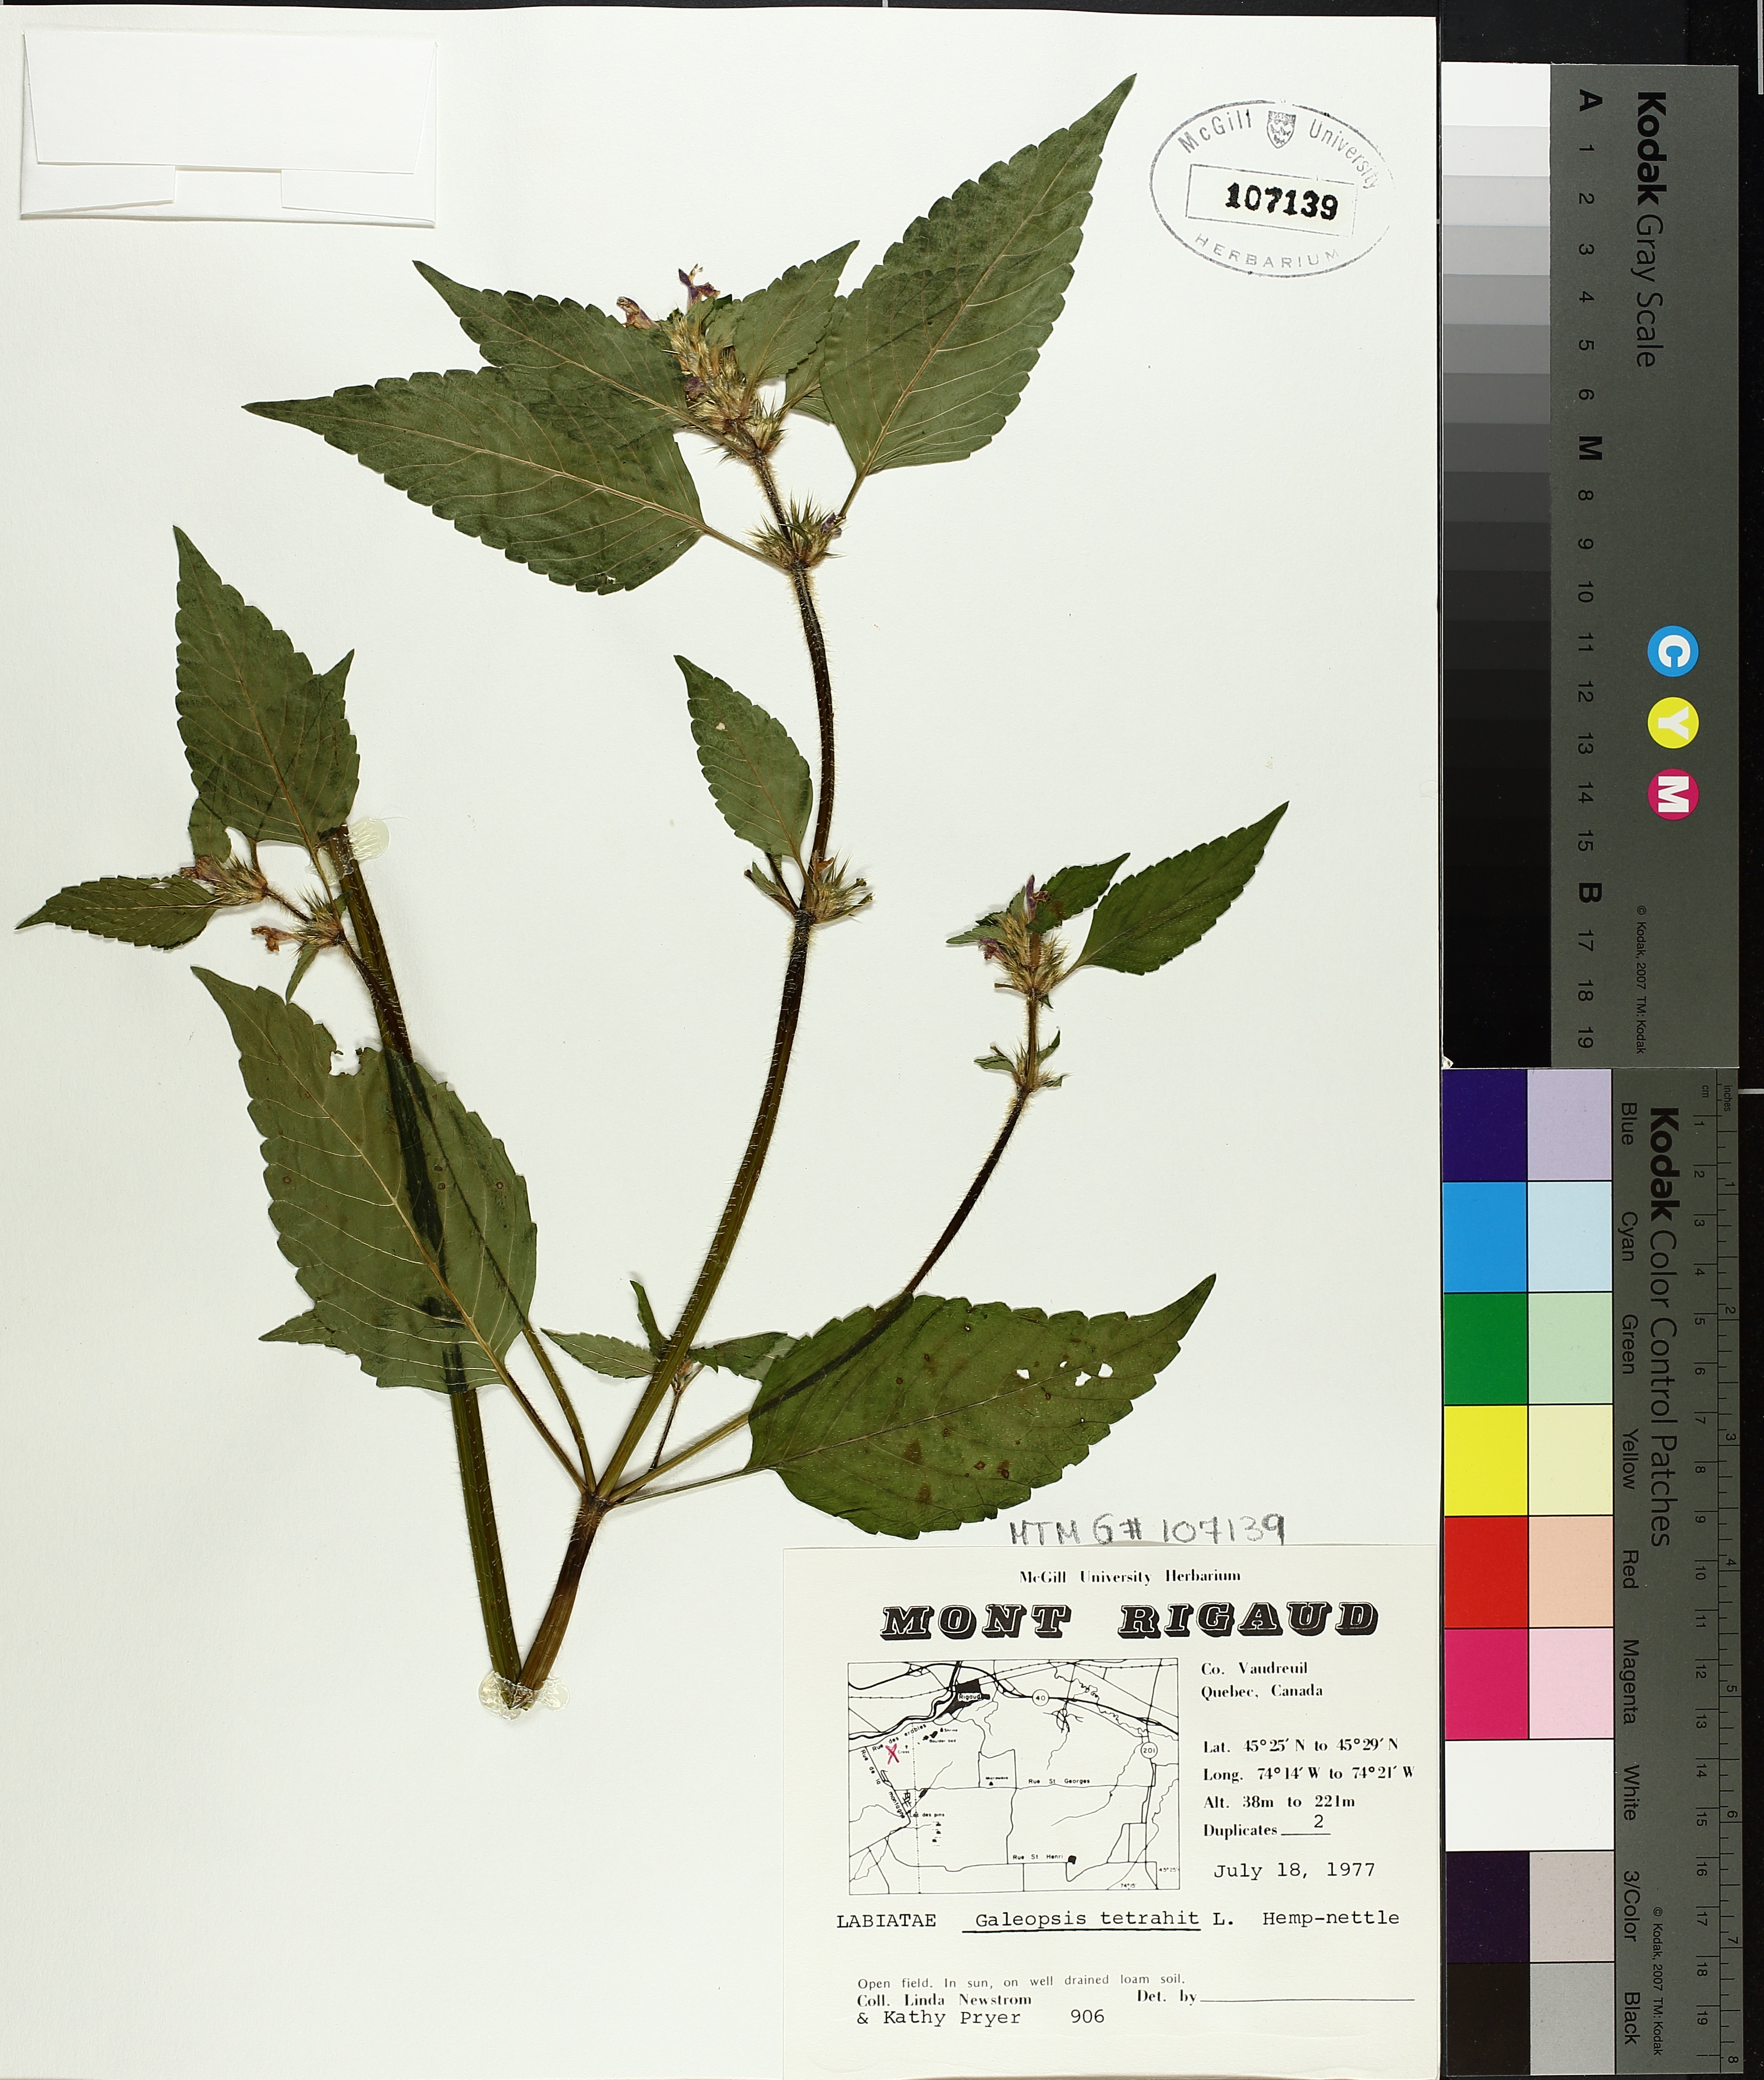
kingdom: Plantae
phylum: Tracheophyta
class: Magnoliopsida
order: Lamiales
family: Lamiaceae
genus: Galeopsis
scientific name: Galeopsis tetrahit
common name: Common hemp-nettle
